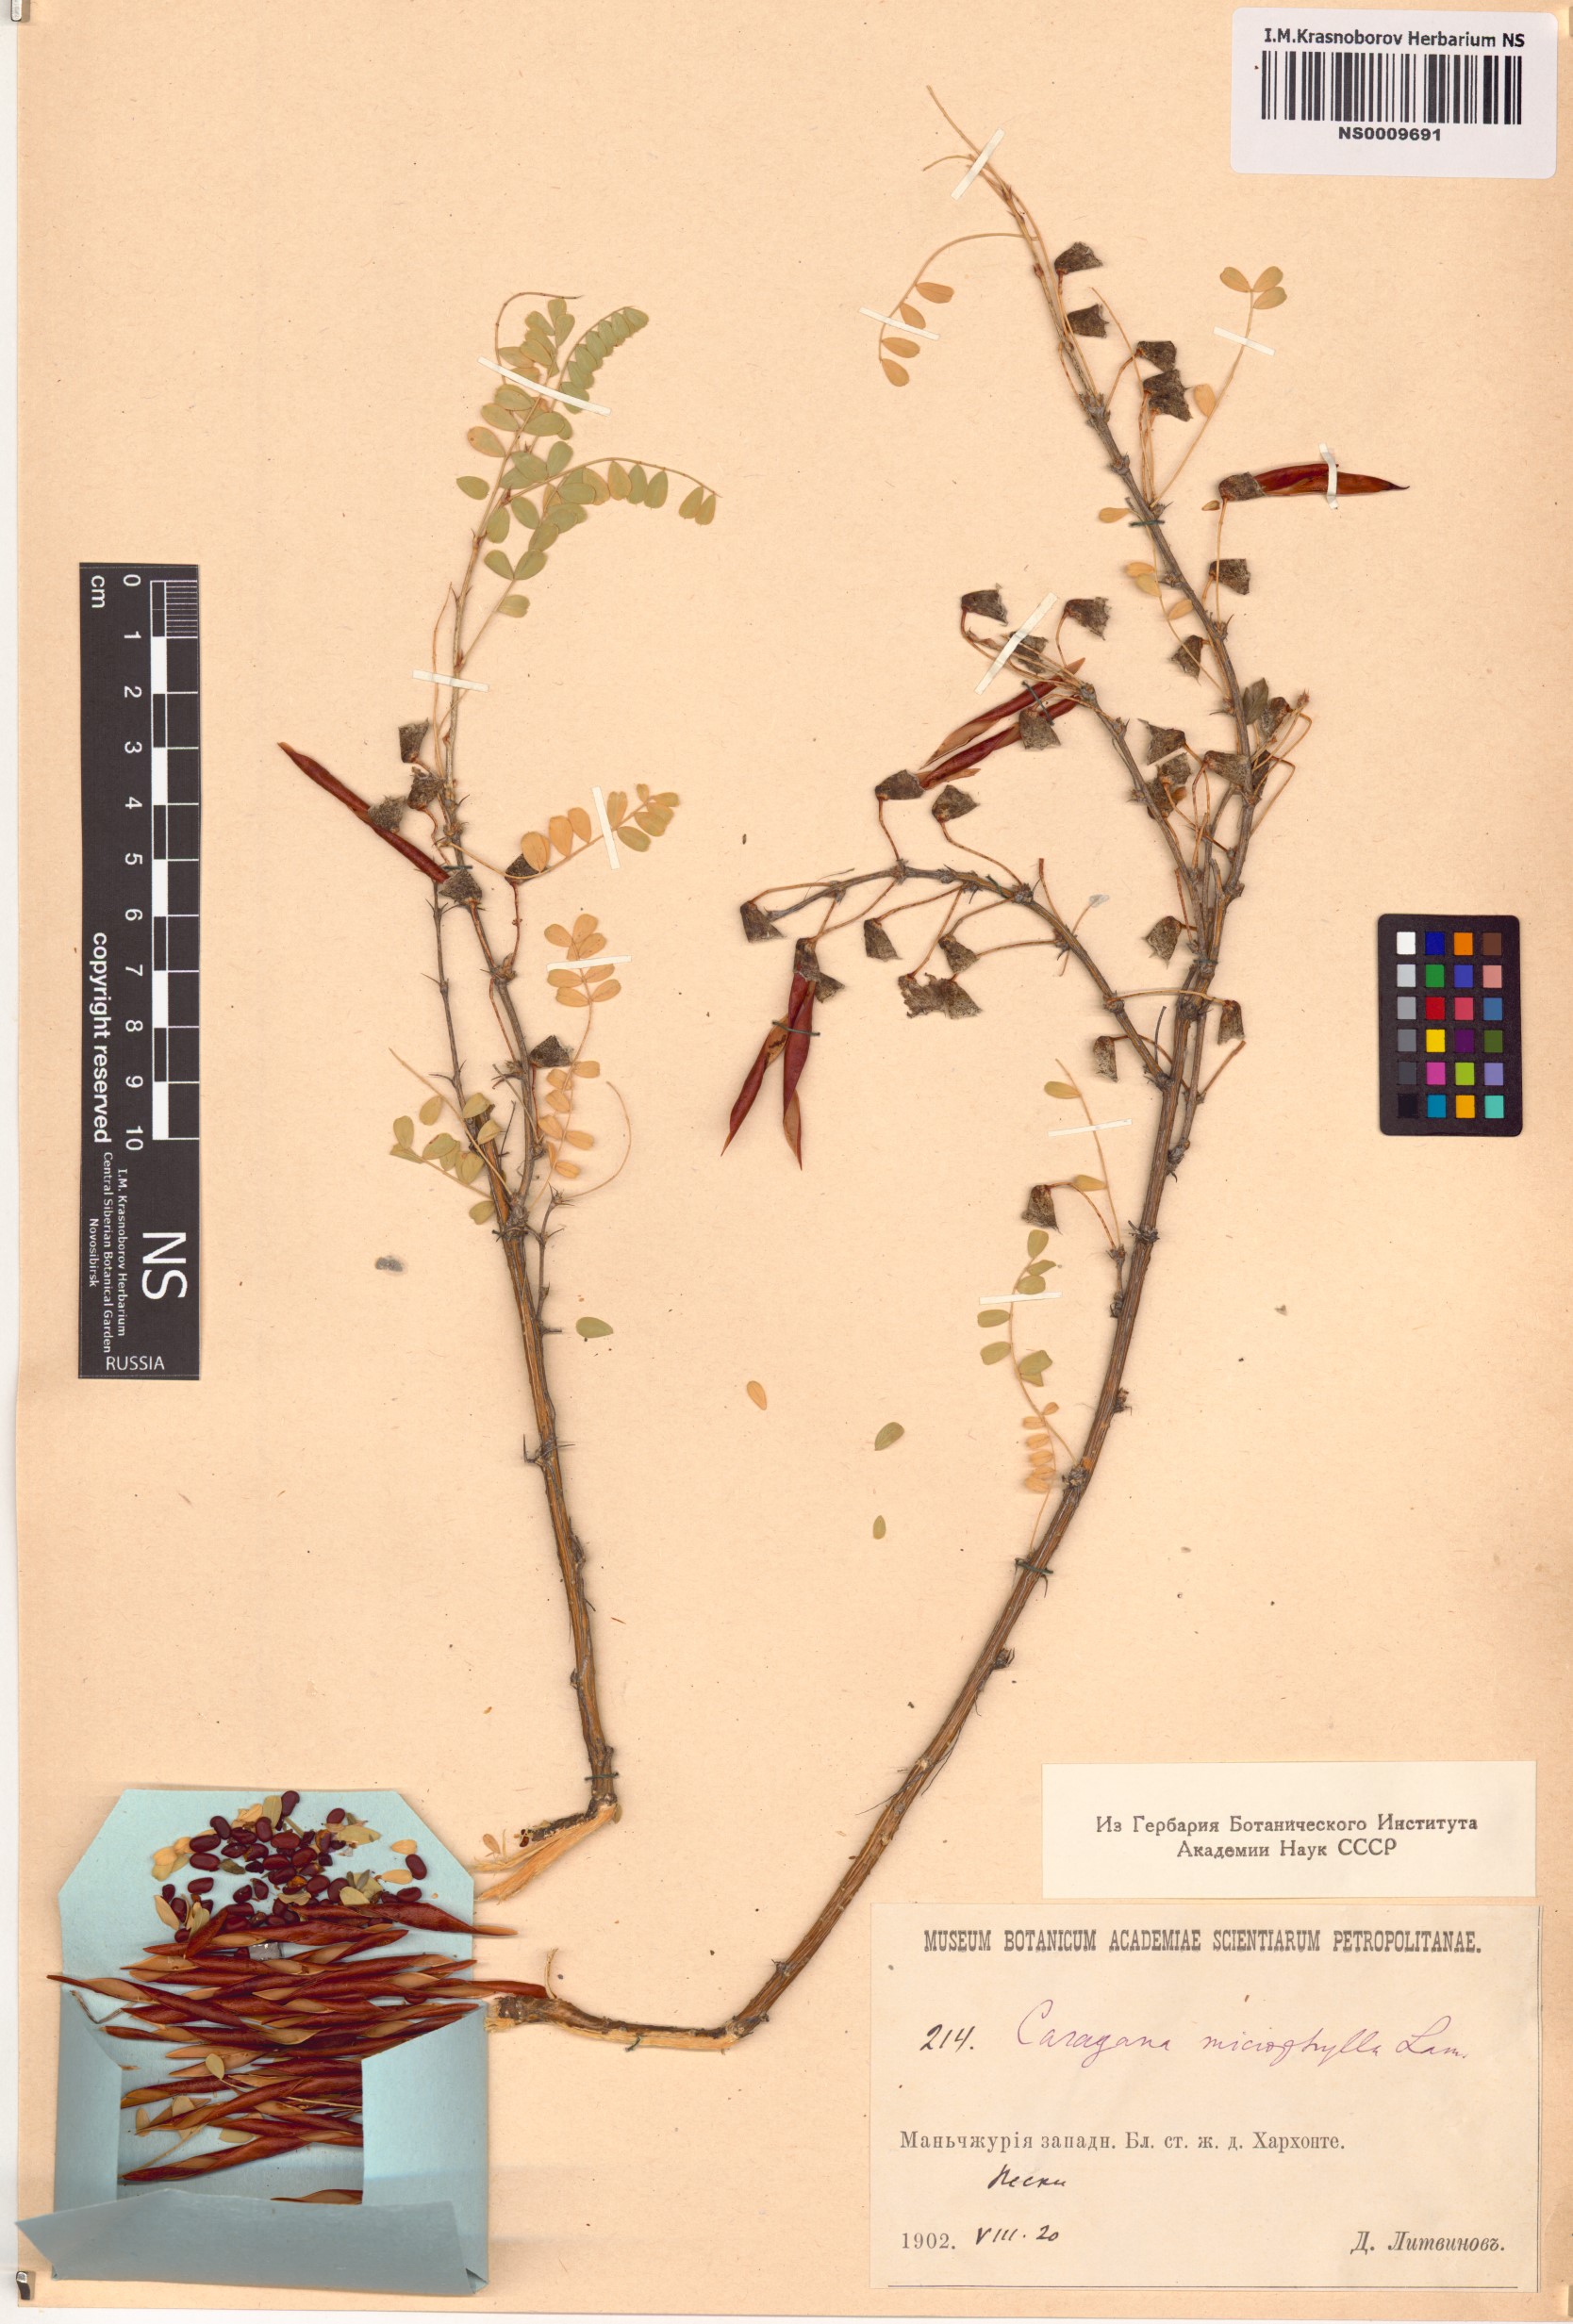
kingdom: Plantae
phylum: Tracheophyta
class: Magnoliopsida
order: Fabales
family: Fabaceae
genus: Caragana
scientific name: Caragana microphylla
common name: Littleleaf peashrub
